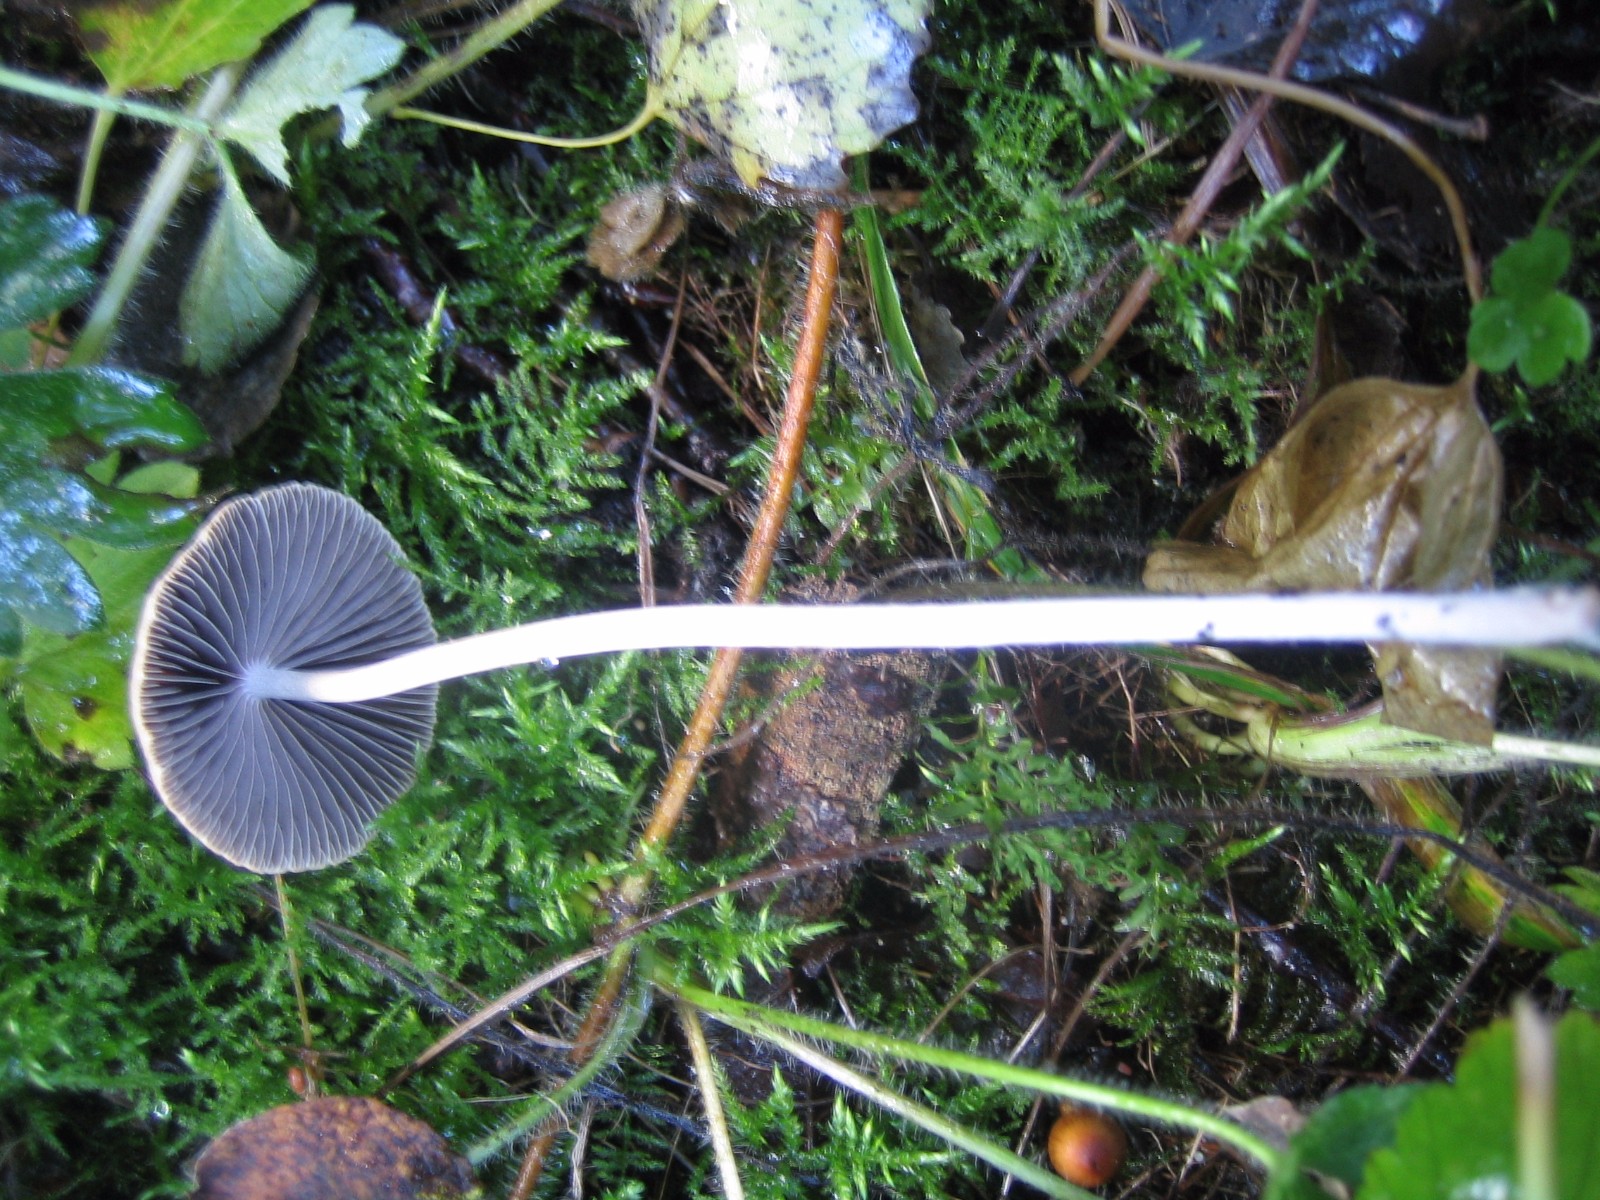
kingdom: Fungi
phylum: Basidiomycota
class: Agaricomycetes
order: Agaricales
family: Psathyrellaceae
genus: Psathyrella
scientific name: Psathyrella
